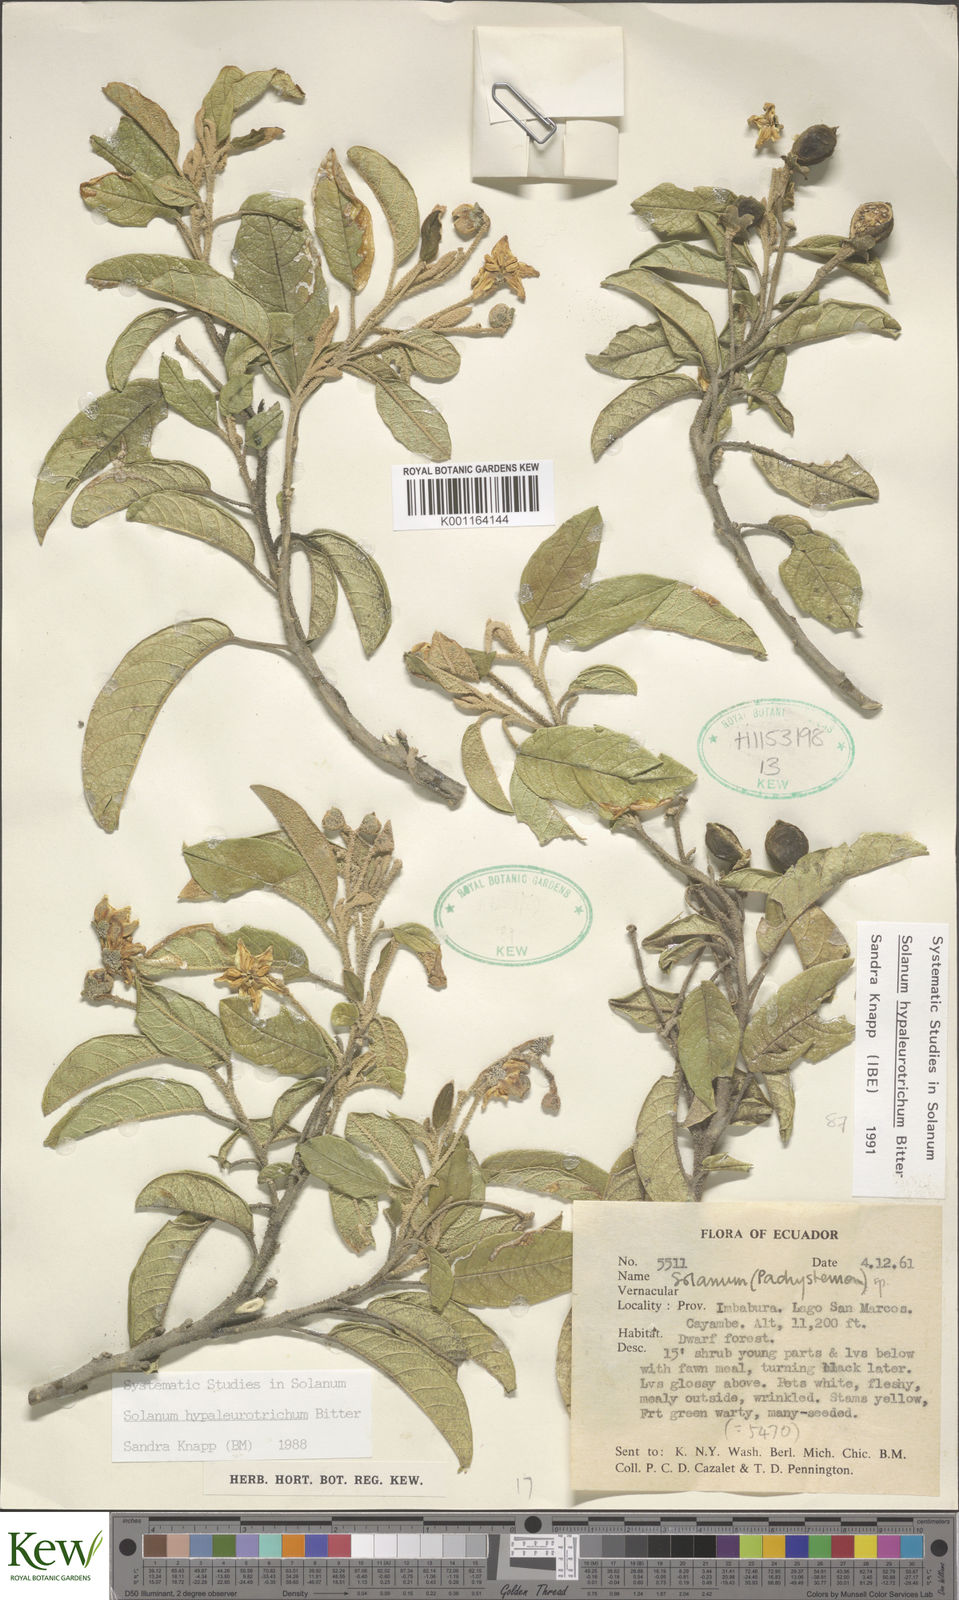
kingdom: Plantae
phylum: Tracheophyta
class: Magnoliopsida
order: Solanales
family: Solanaceae
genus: Solanum
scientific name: Solanum hypaleurotrichum
